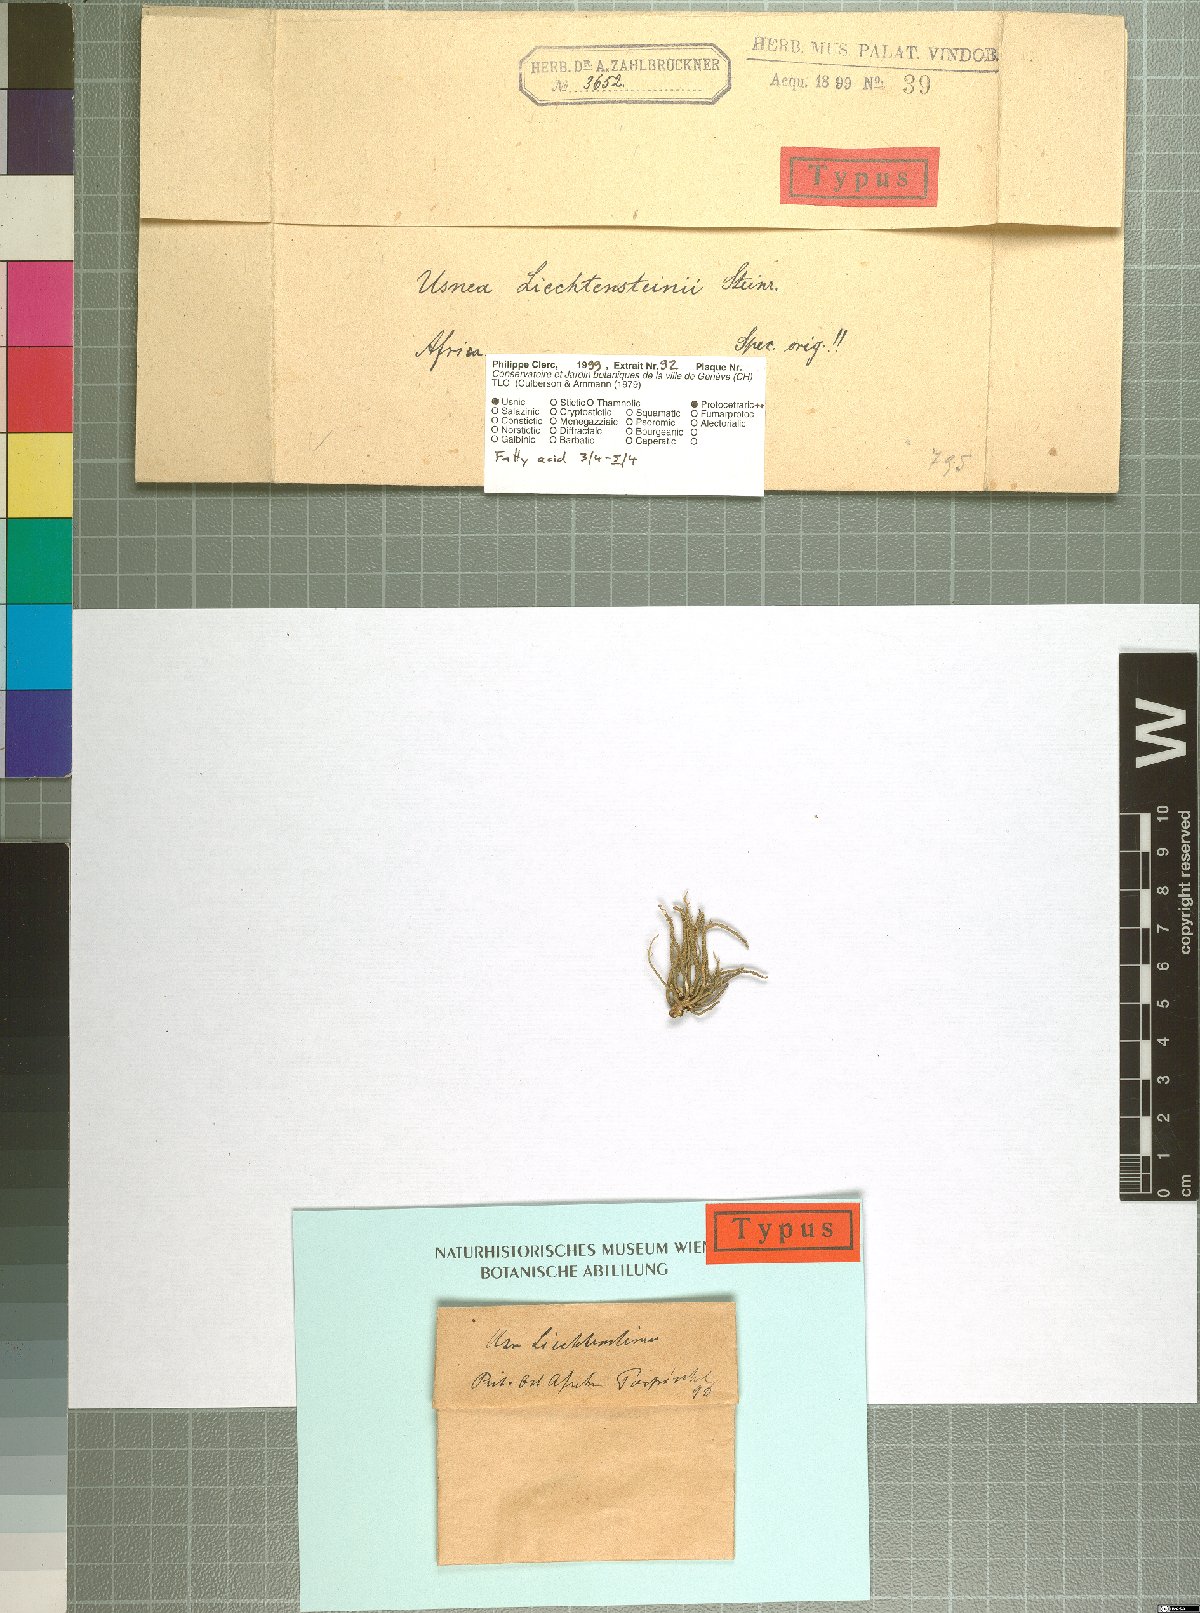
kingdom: Fungi
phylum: Ascomycota
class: Lecanoromycetes
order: Lecanorales
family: Parmeliaceae
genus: Usnea
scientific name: Usnea liechtensteinii
